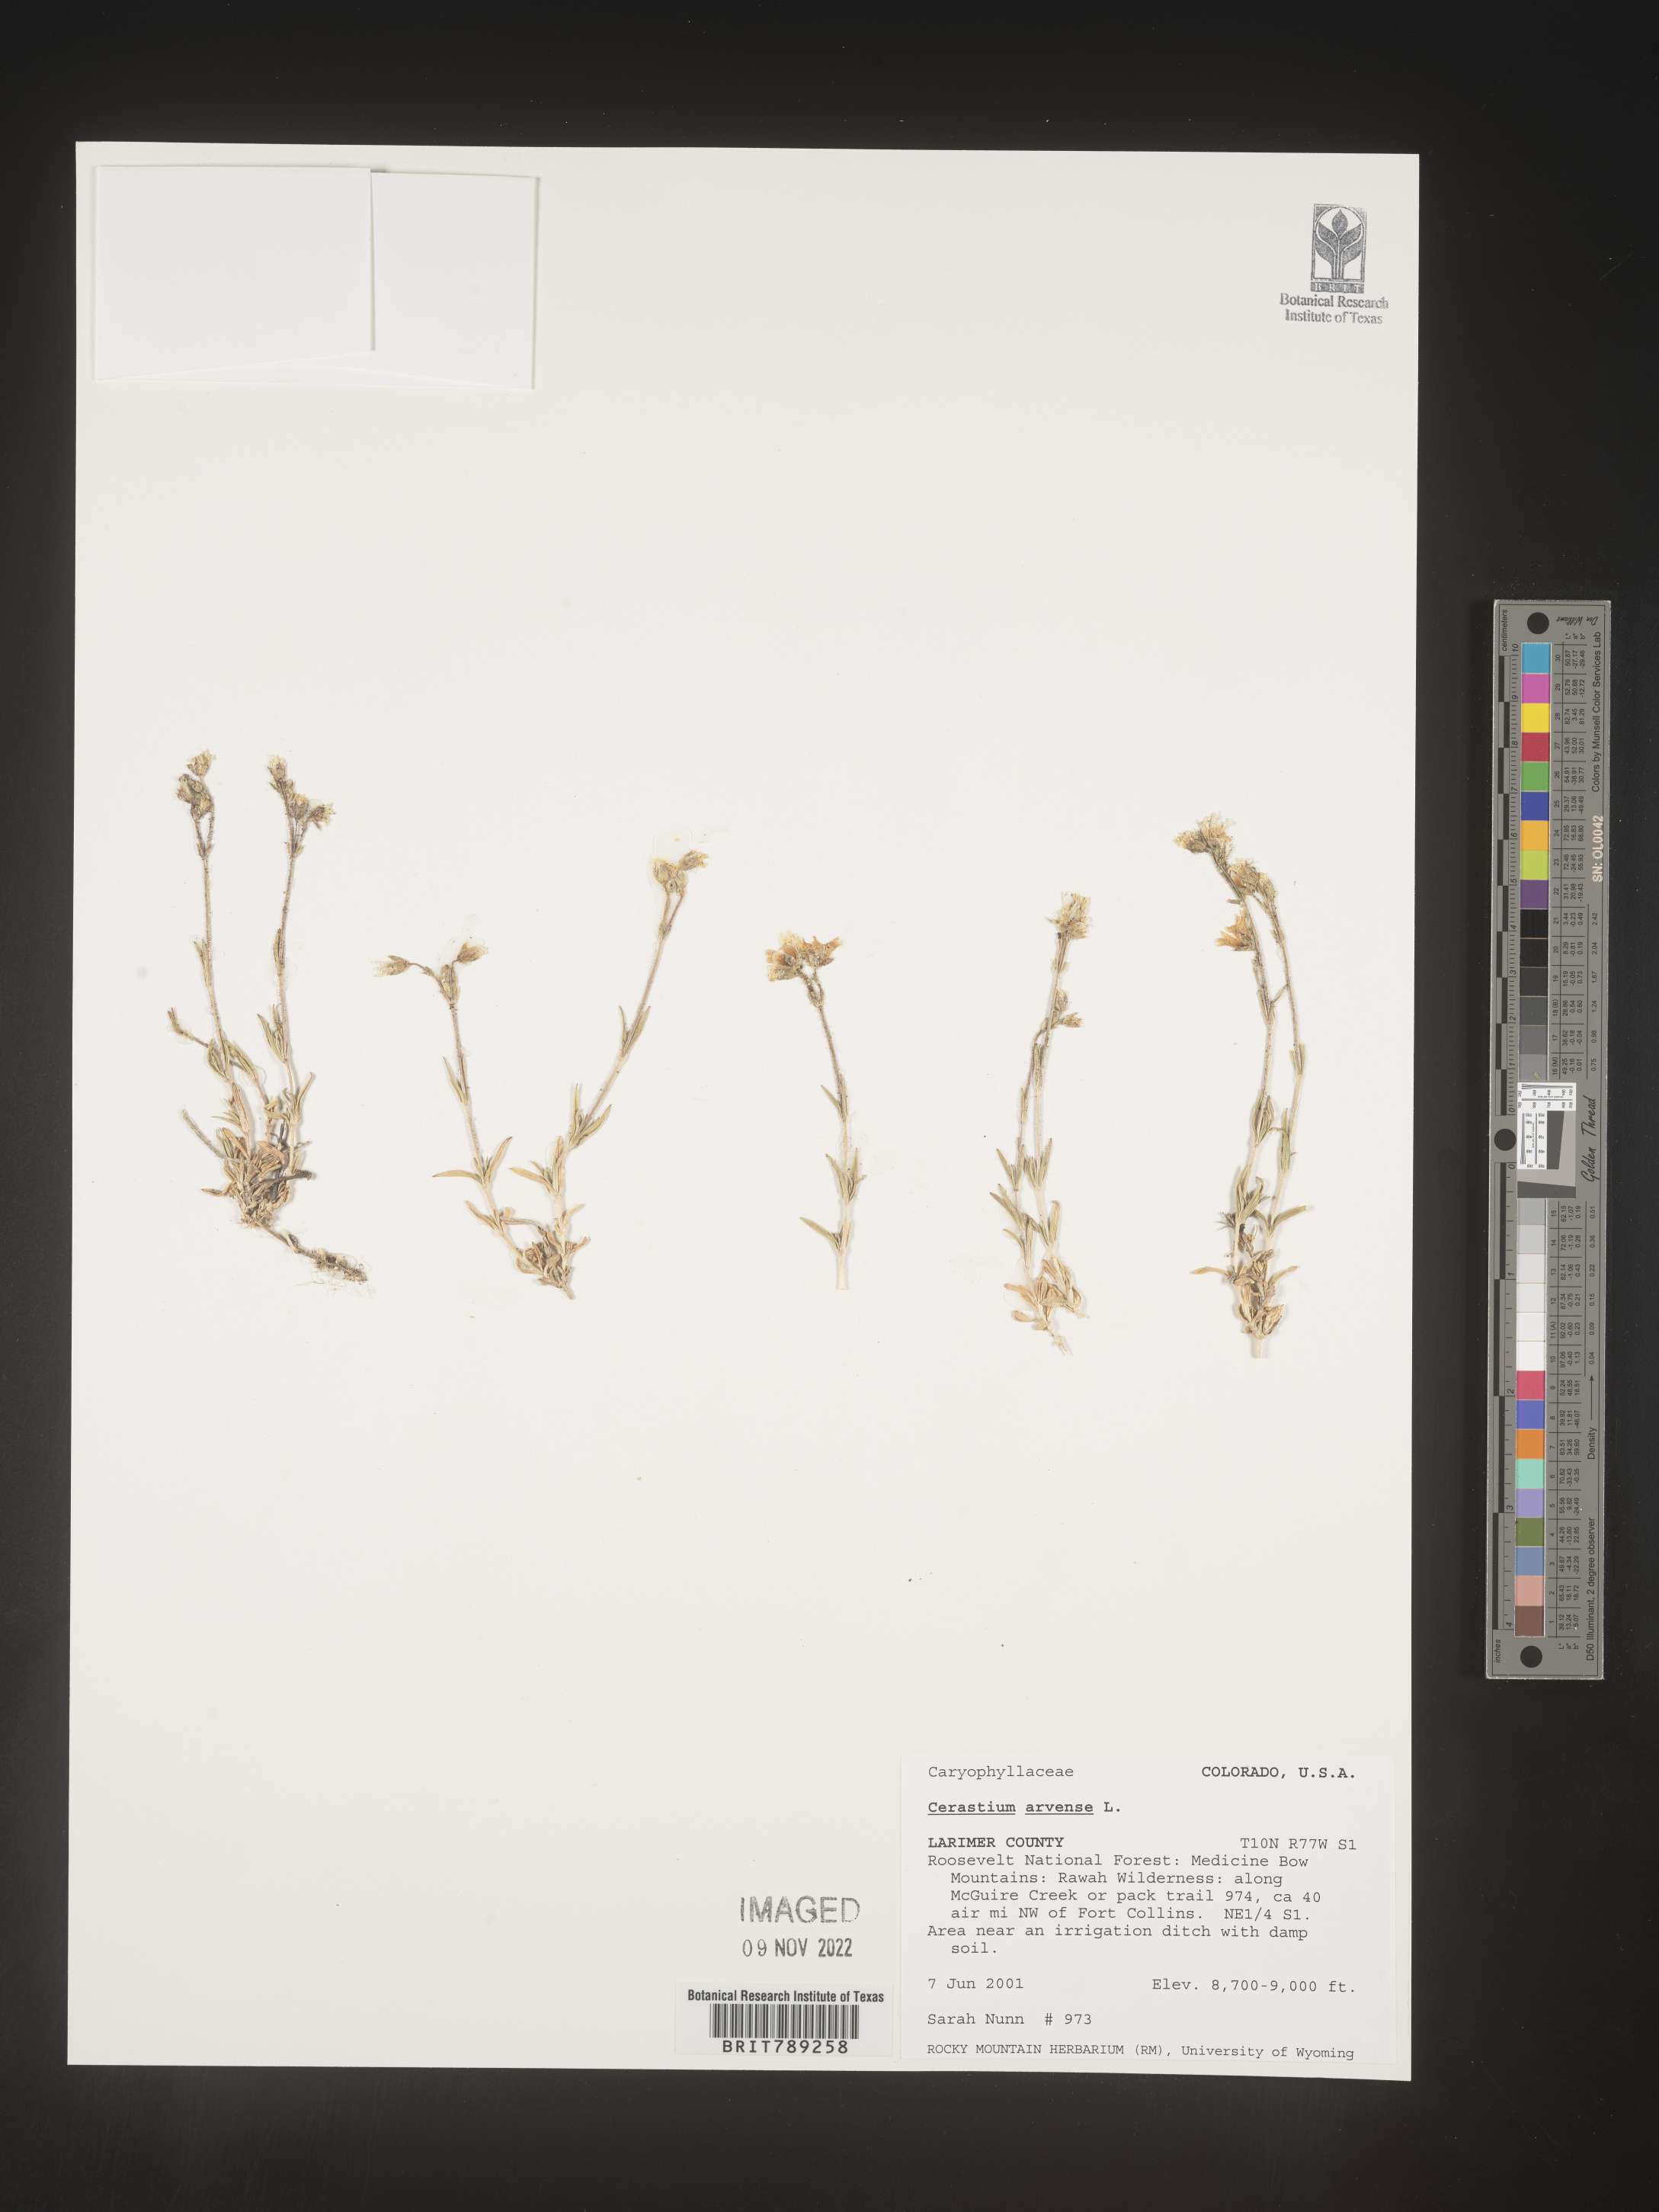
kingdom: Plantae
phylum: Tracheophyta
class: Magnoliopsida
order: Caryophyllales
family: Caryophyllaceae
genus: Cerastium
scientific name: Cerastium arvense
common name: Field mouse-ear
